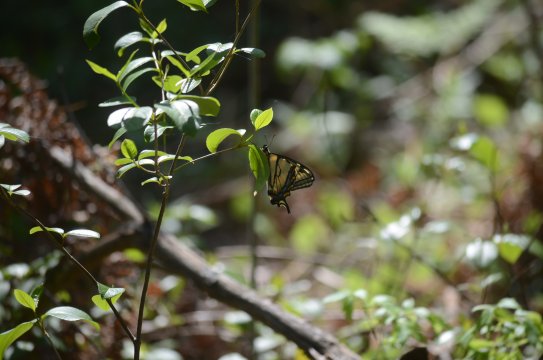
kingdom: Animalia
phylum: Arthropoda
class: Insecta
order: Lepidoptera
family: Papilionidae
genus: Pterourus
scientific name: Pterourus canadensis
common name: Canadian Tiger Swallowtail
